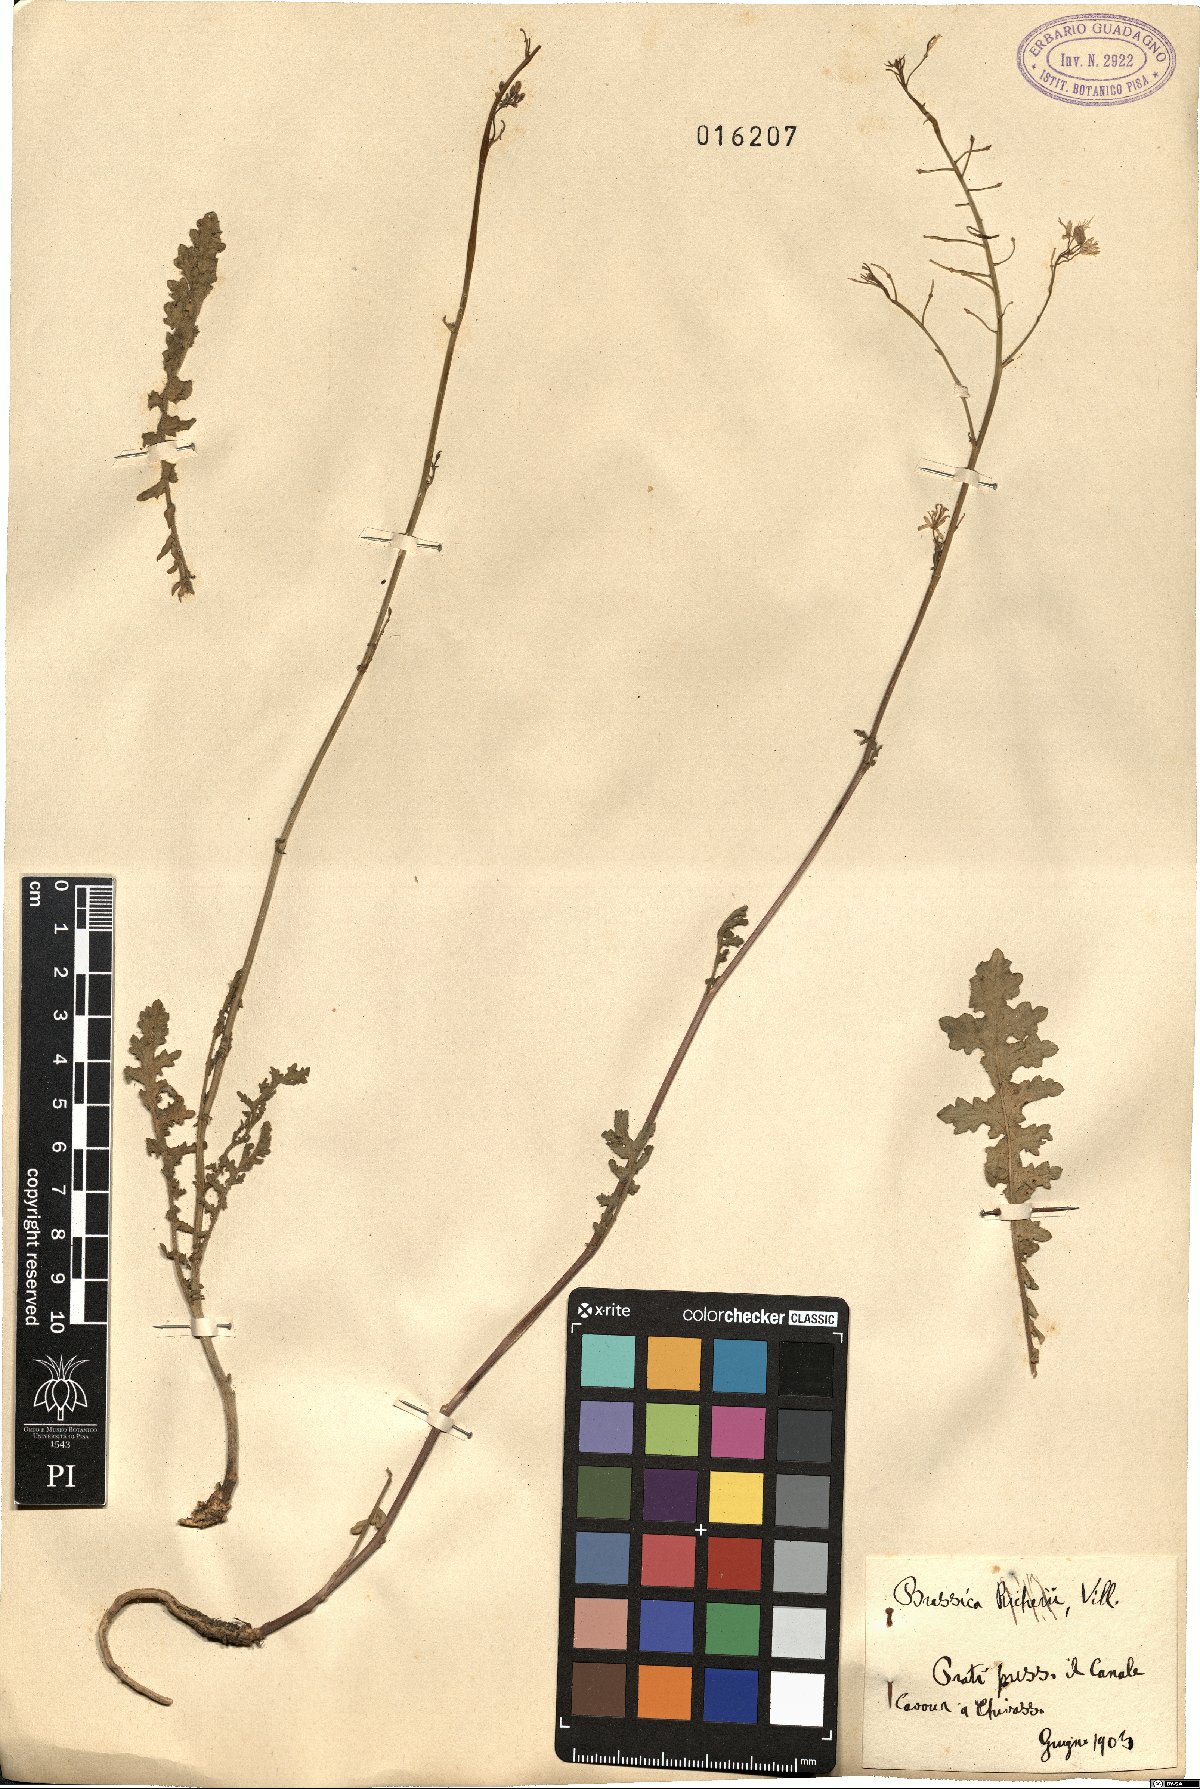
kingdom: Plantae
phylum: Tracheophyta
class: Magnoliopsida
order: Brassicales
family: Brassicaceae
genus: Brassica
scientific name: Brassica
